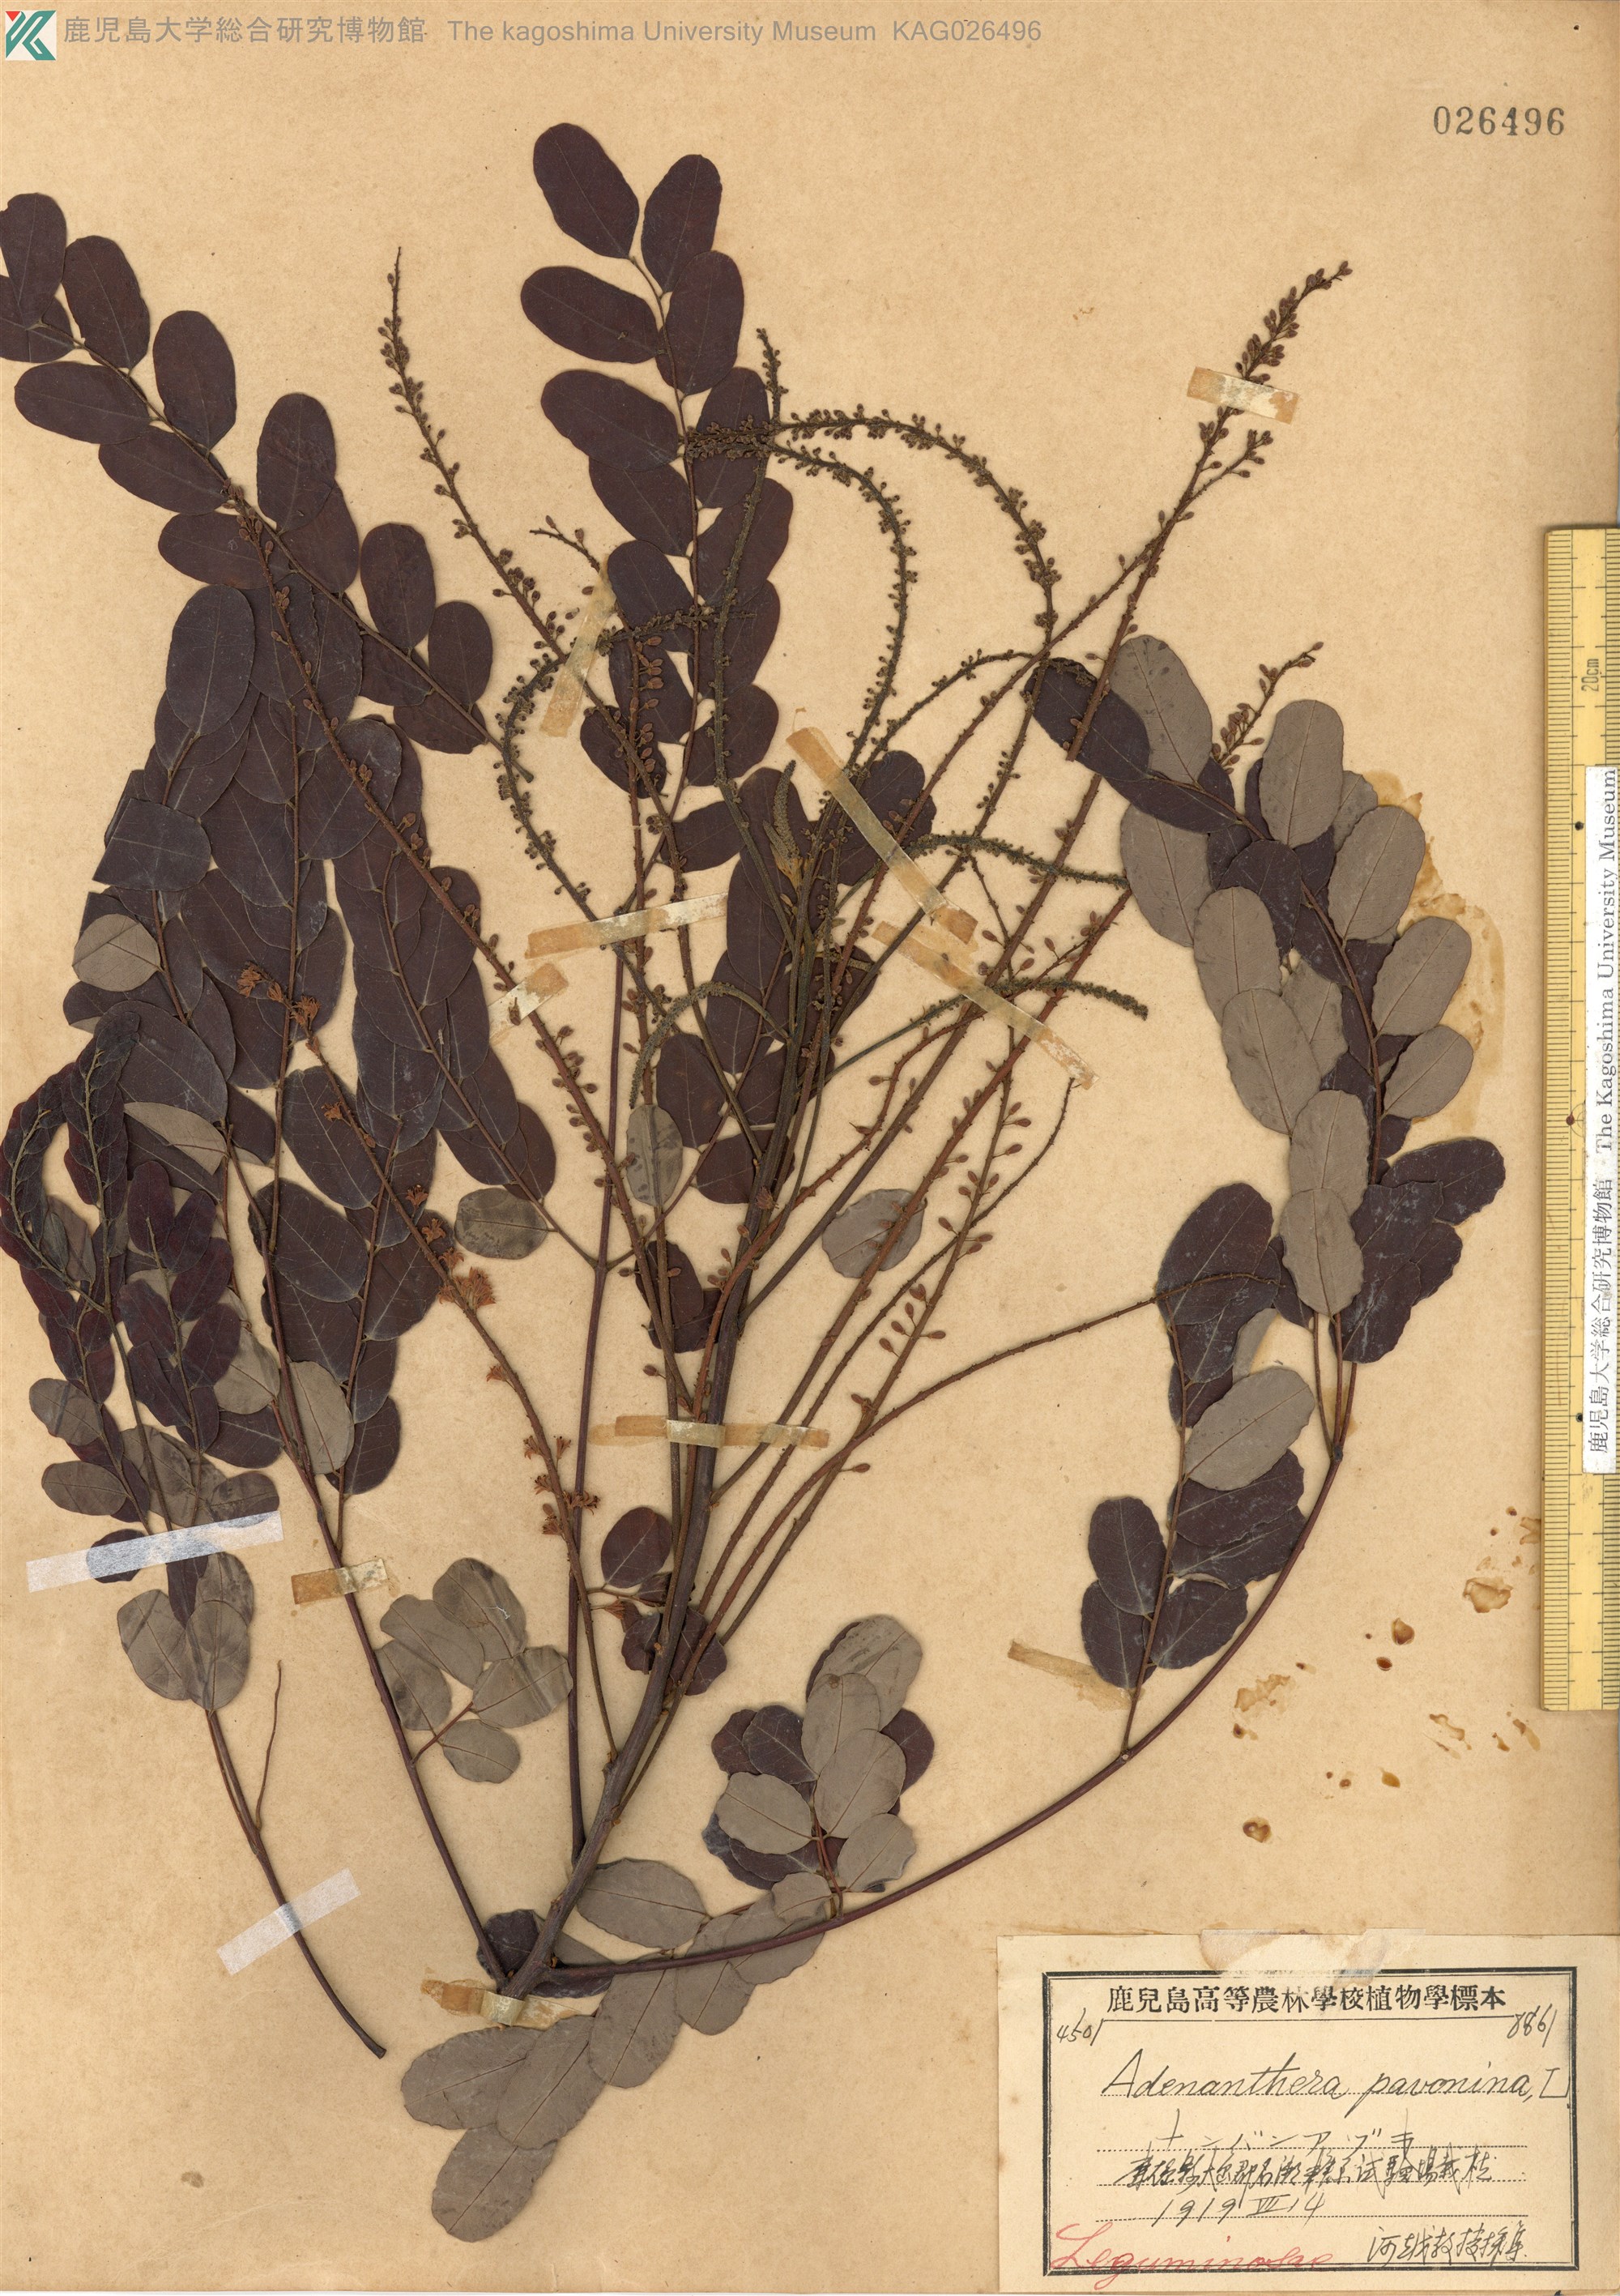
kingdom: Plantae
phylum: Tracheophyta
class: Magnoliopsida
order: Fabales
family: Fabaceae
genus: Adenanthera
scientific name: Adenanthera pavonina
